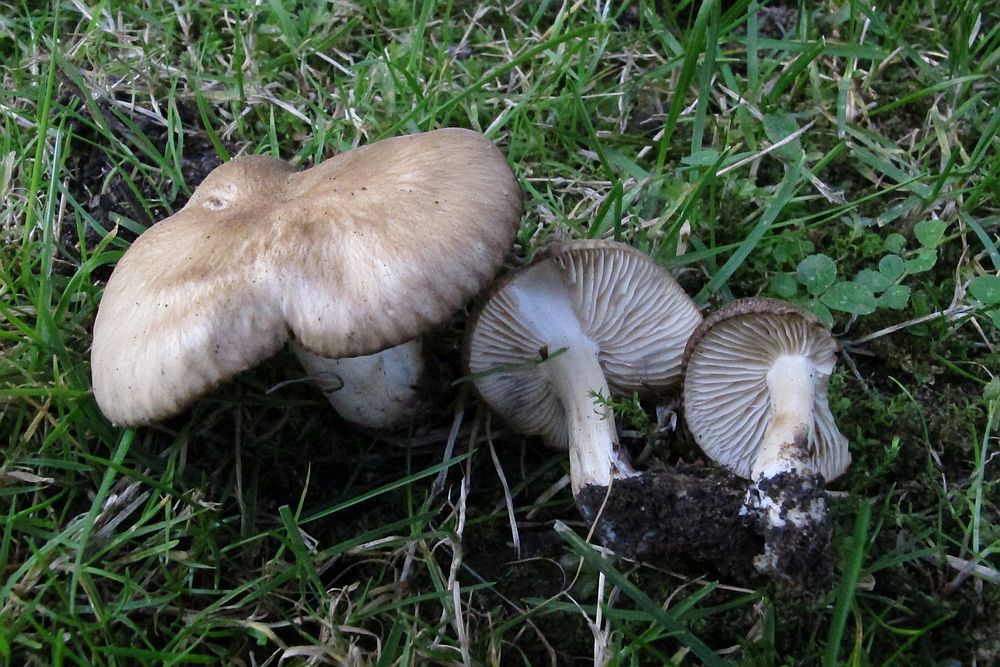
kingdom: Fungi
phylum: Basidiomycota
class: Agaricomycetes
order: Agaricales
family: Lyophyllaceae
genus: Lyophyllum
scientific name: Lyophyllum paelochroum
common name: blånende gråblad
